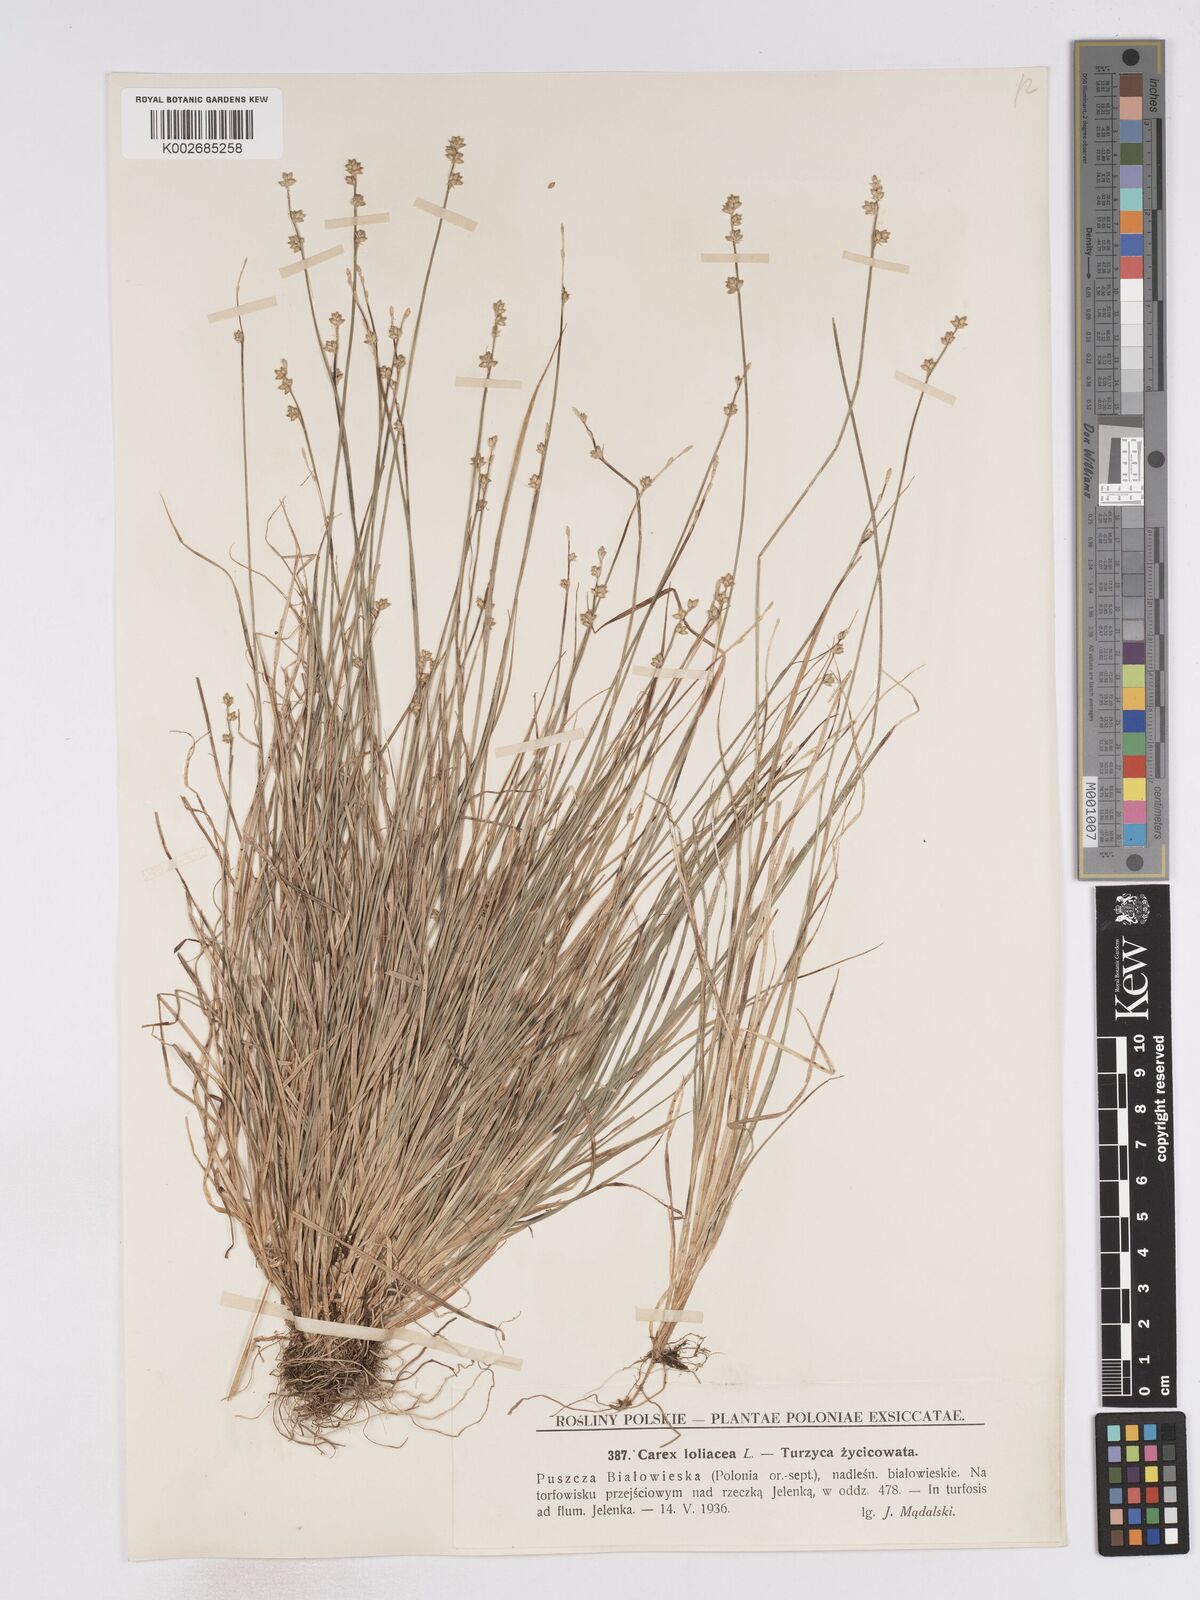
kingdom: Plantae
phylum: Tracheophyta
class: Liliopsida
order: Poales
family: Cyperaceae
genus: Carex
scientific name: Carex loliacea
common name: Ryegrass sedge
